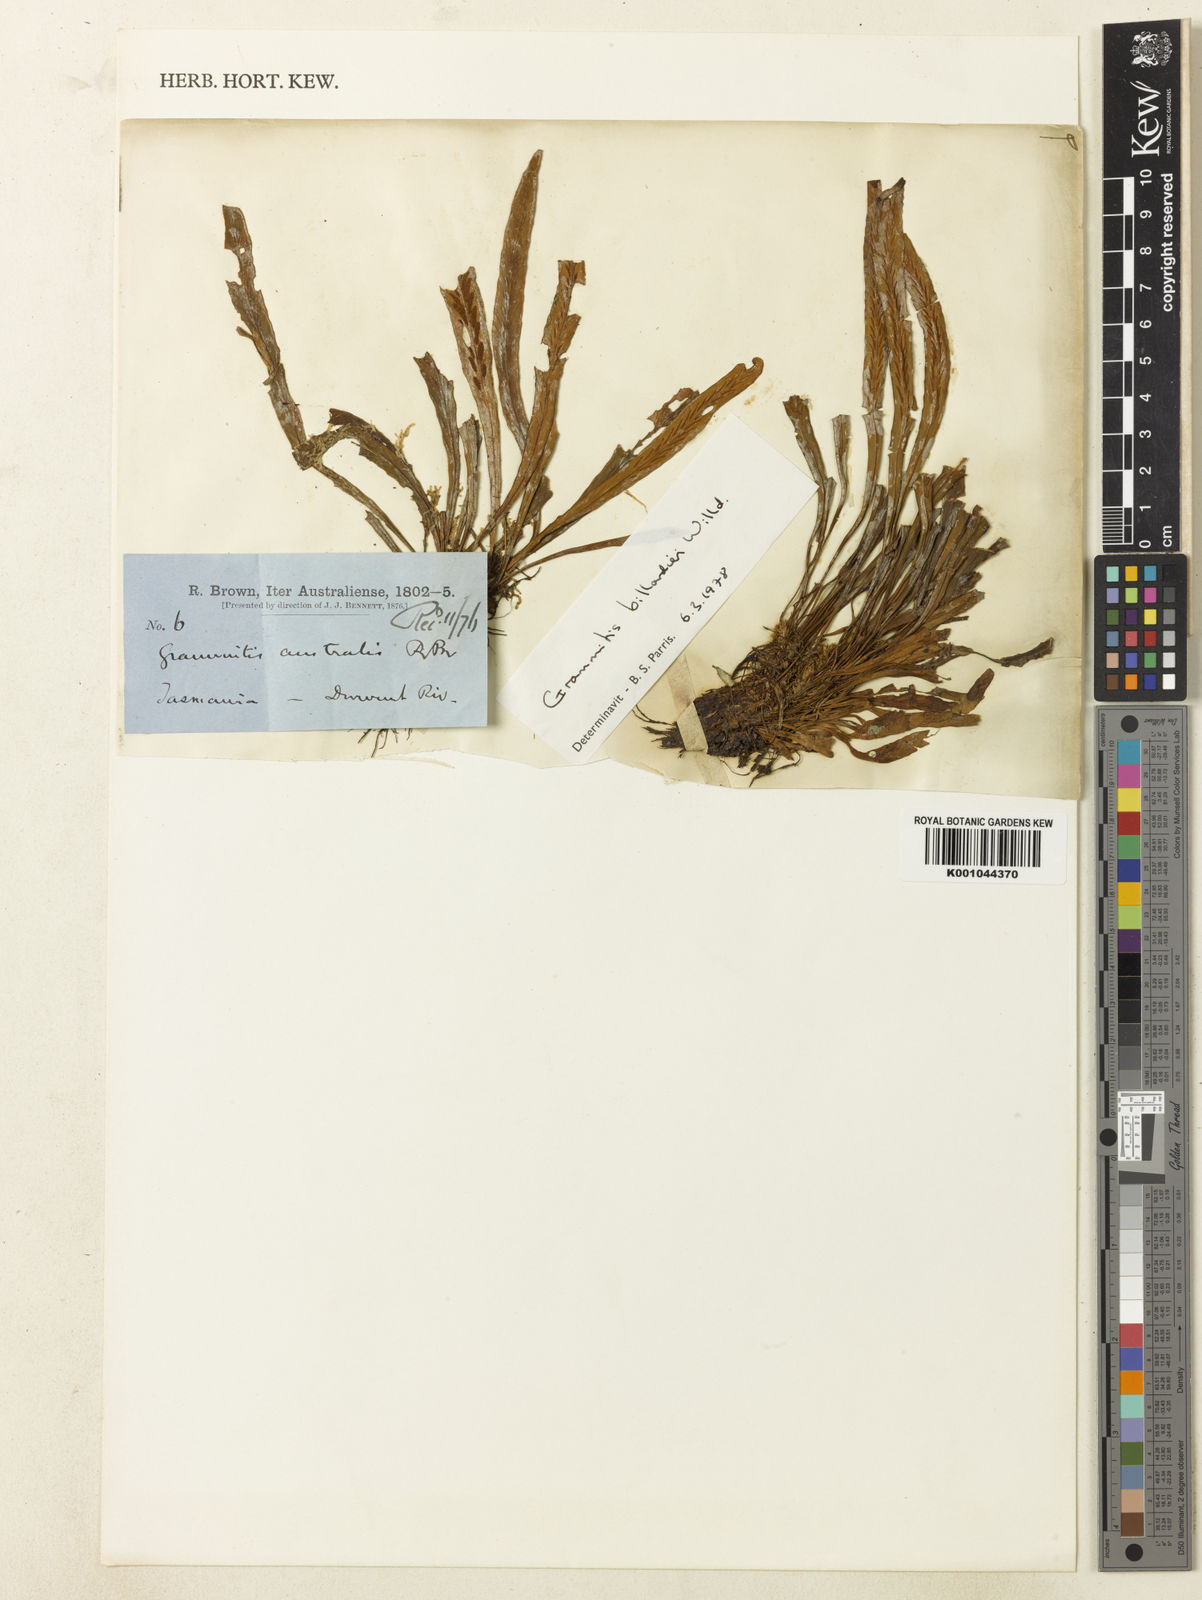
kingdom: Plantae
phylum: Tracheophyta
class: Polypodiopsida
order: Polypodiales
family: Polypodiaceae
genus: Notogrammitis
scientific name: Notogrammitis billardierei
